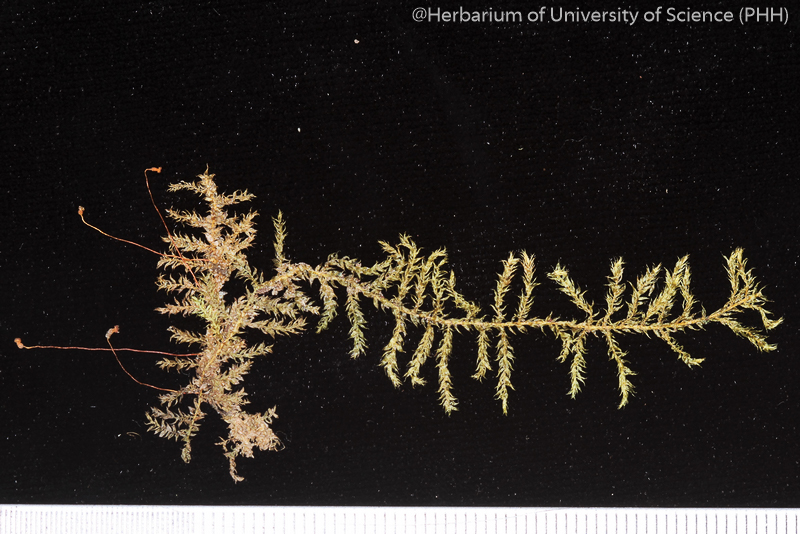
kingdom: Plantae
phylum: Bryophyta
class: Bryopsida
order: Hypnales
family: Hypnaceae
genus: Vesicularia
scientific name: Vesicularia tonkinensis
